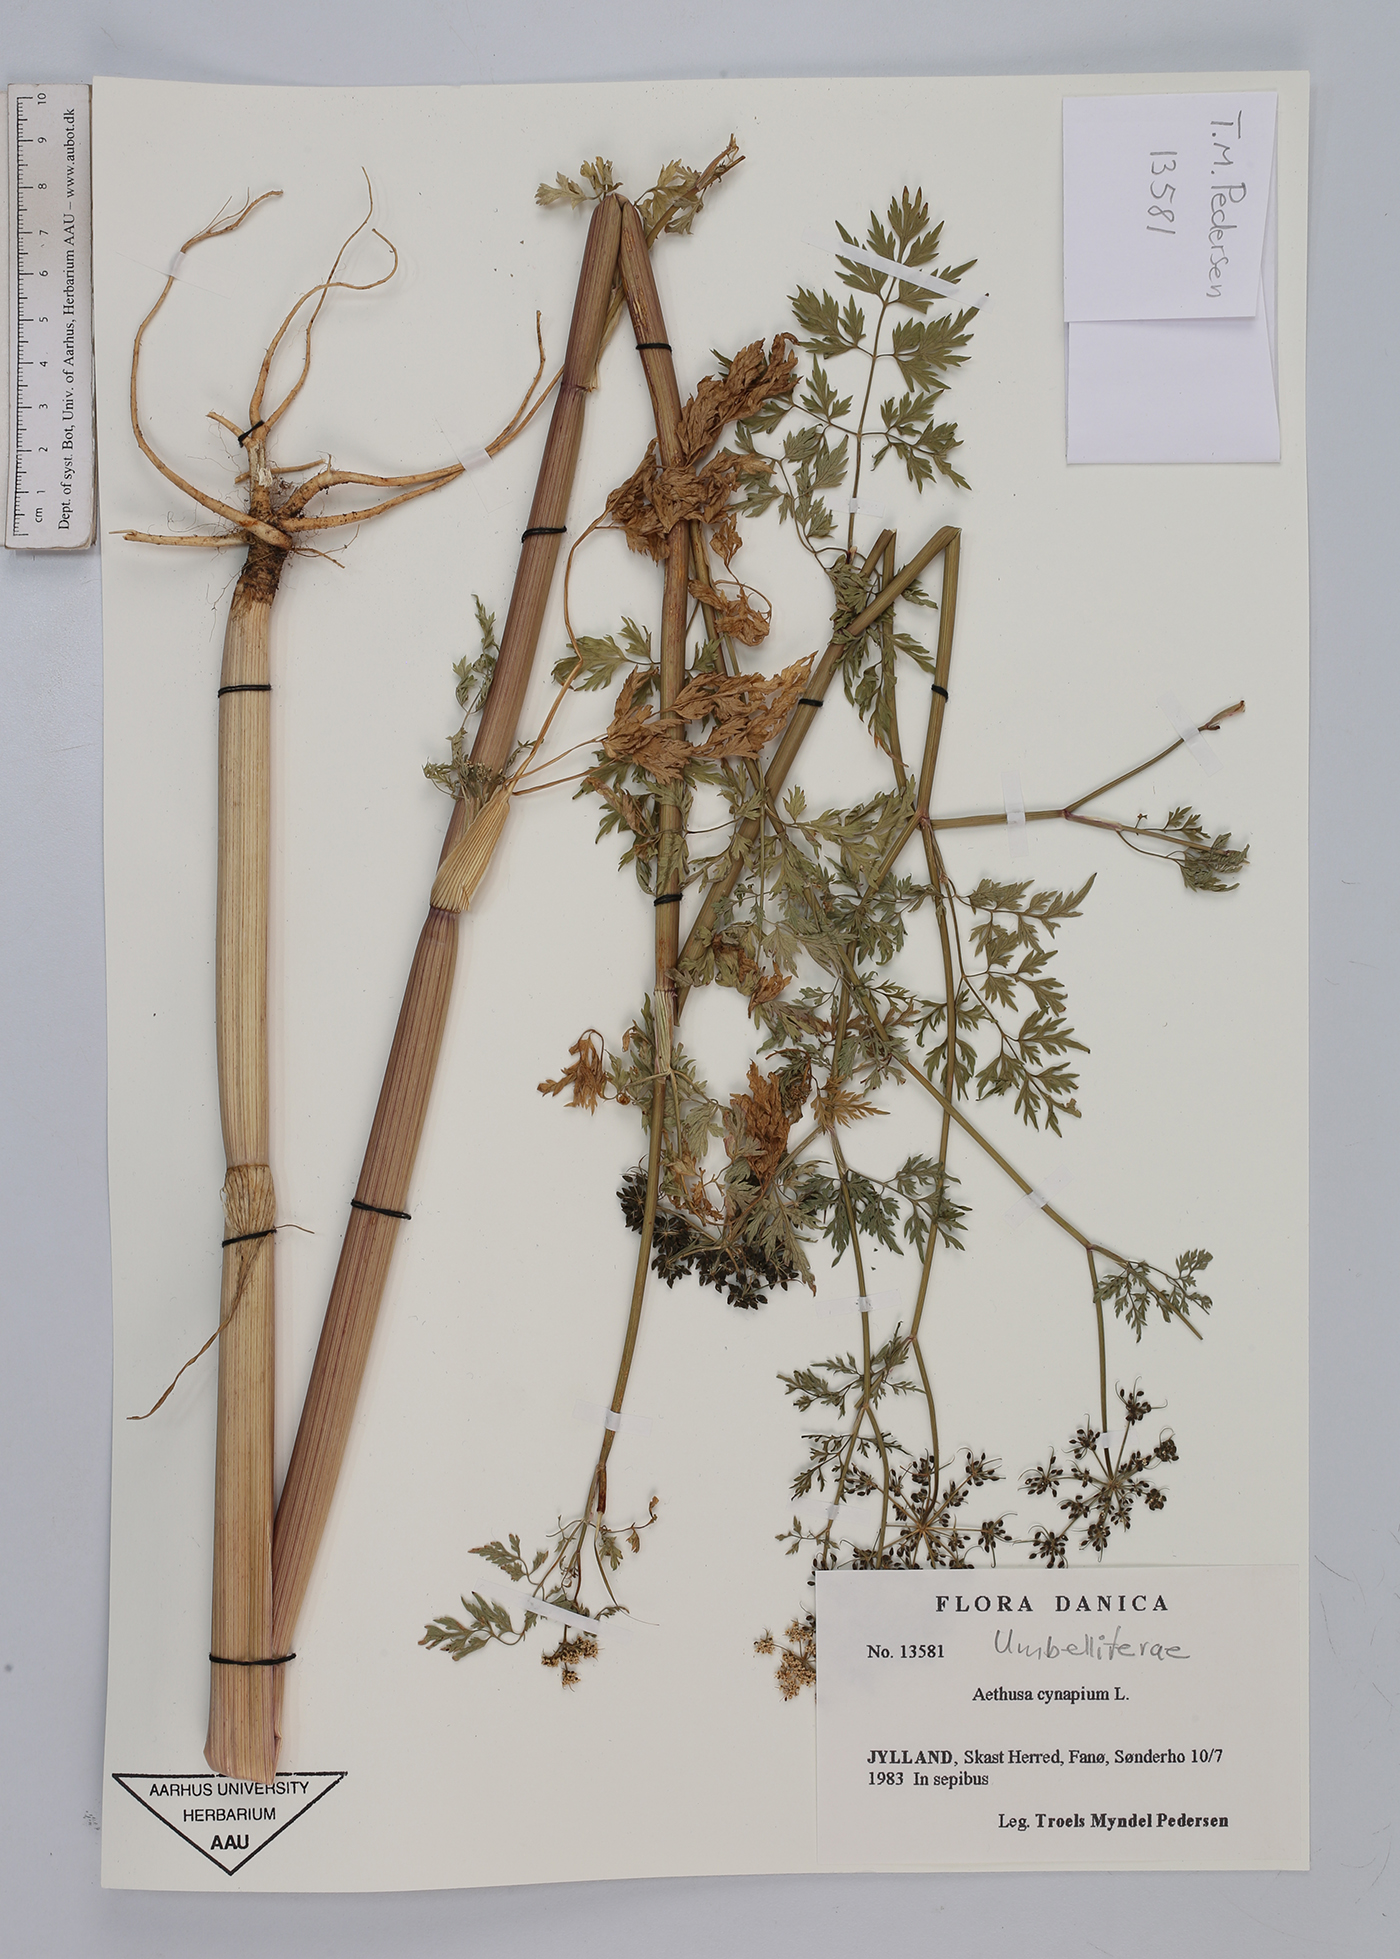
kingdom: Plantae
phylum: Tracheophyta
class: Magnoliopsida
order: Apiales
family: Apiaceae
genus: Aethusa
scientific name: Aethusa cynapium
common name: Fool's parsley
